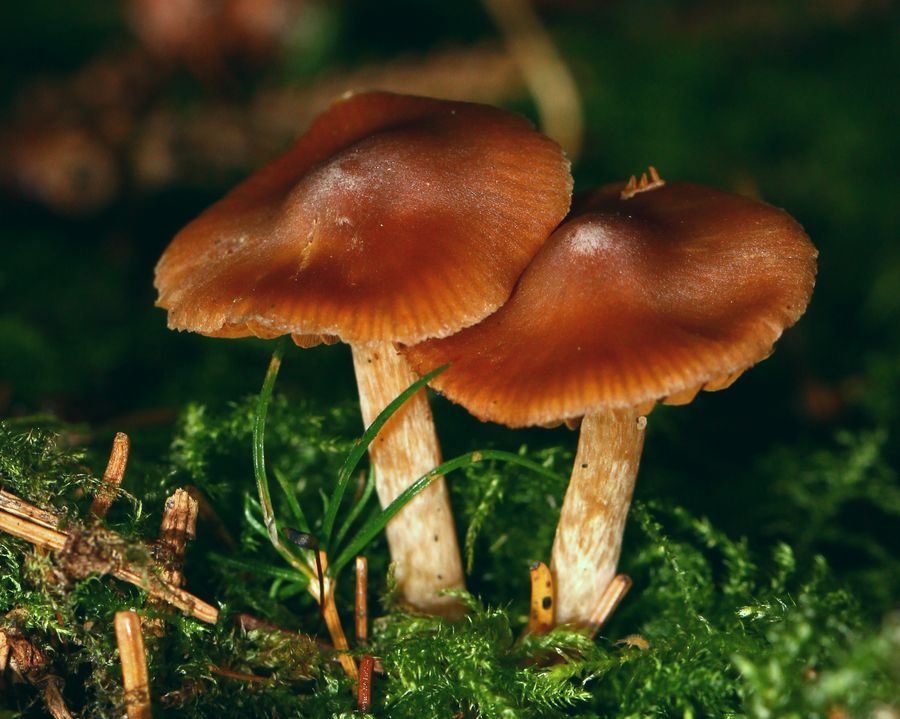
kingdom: Fungi
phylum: Basidiomycota
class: Agaricomycetes
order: Agaricales
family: Cortinariaceae
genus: Cortinarius
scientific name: Cortinarius
